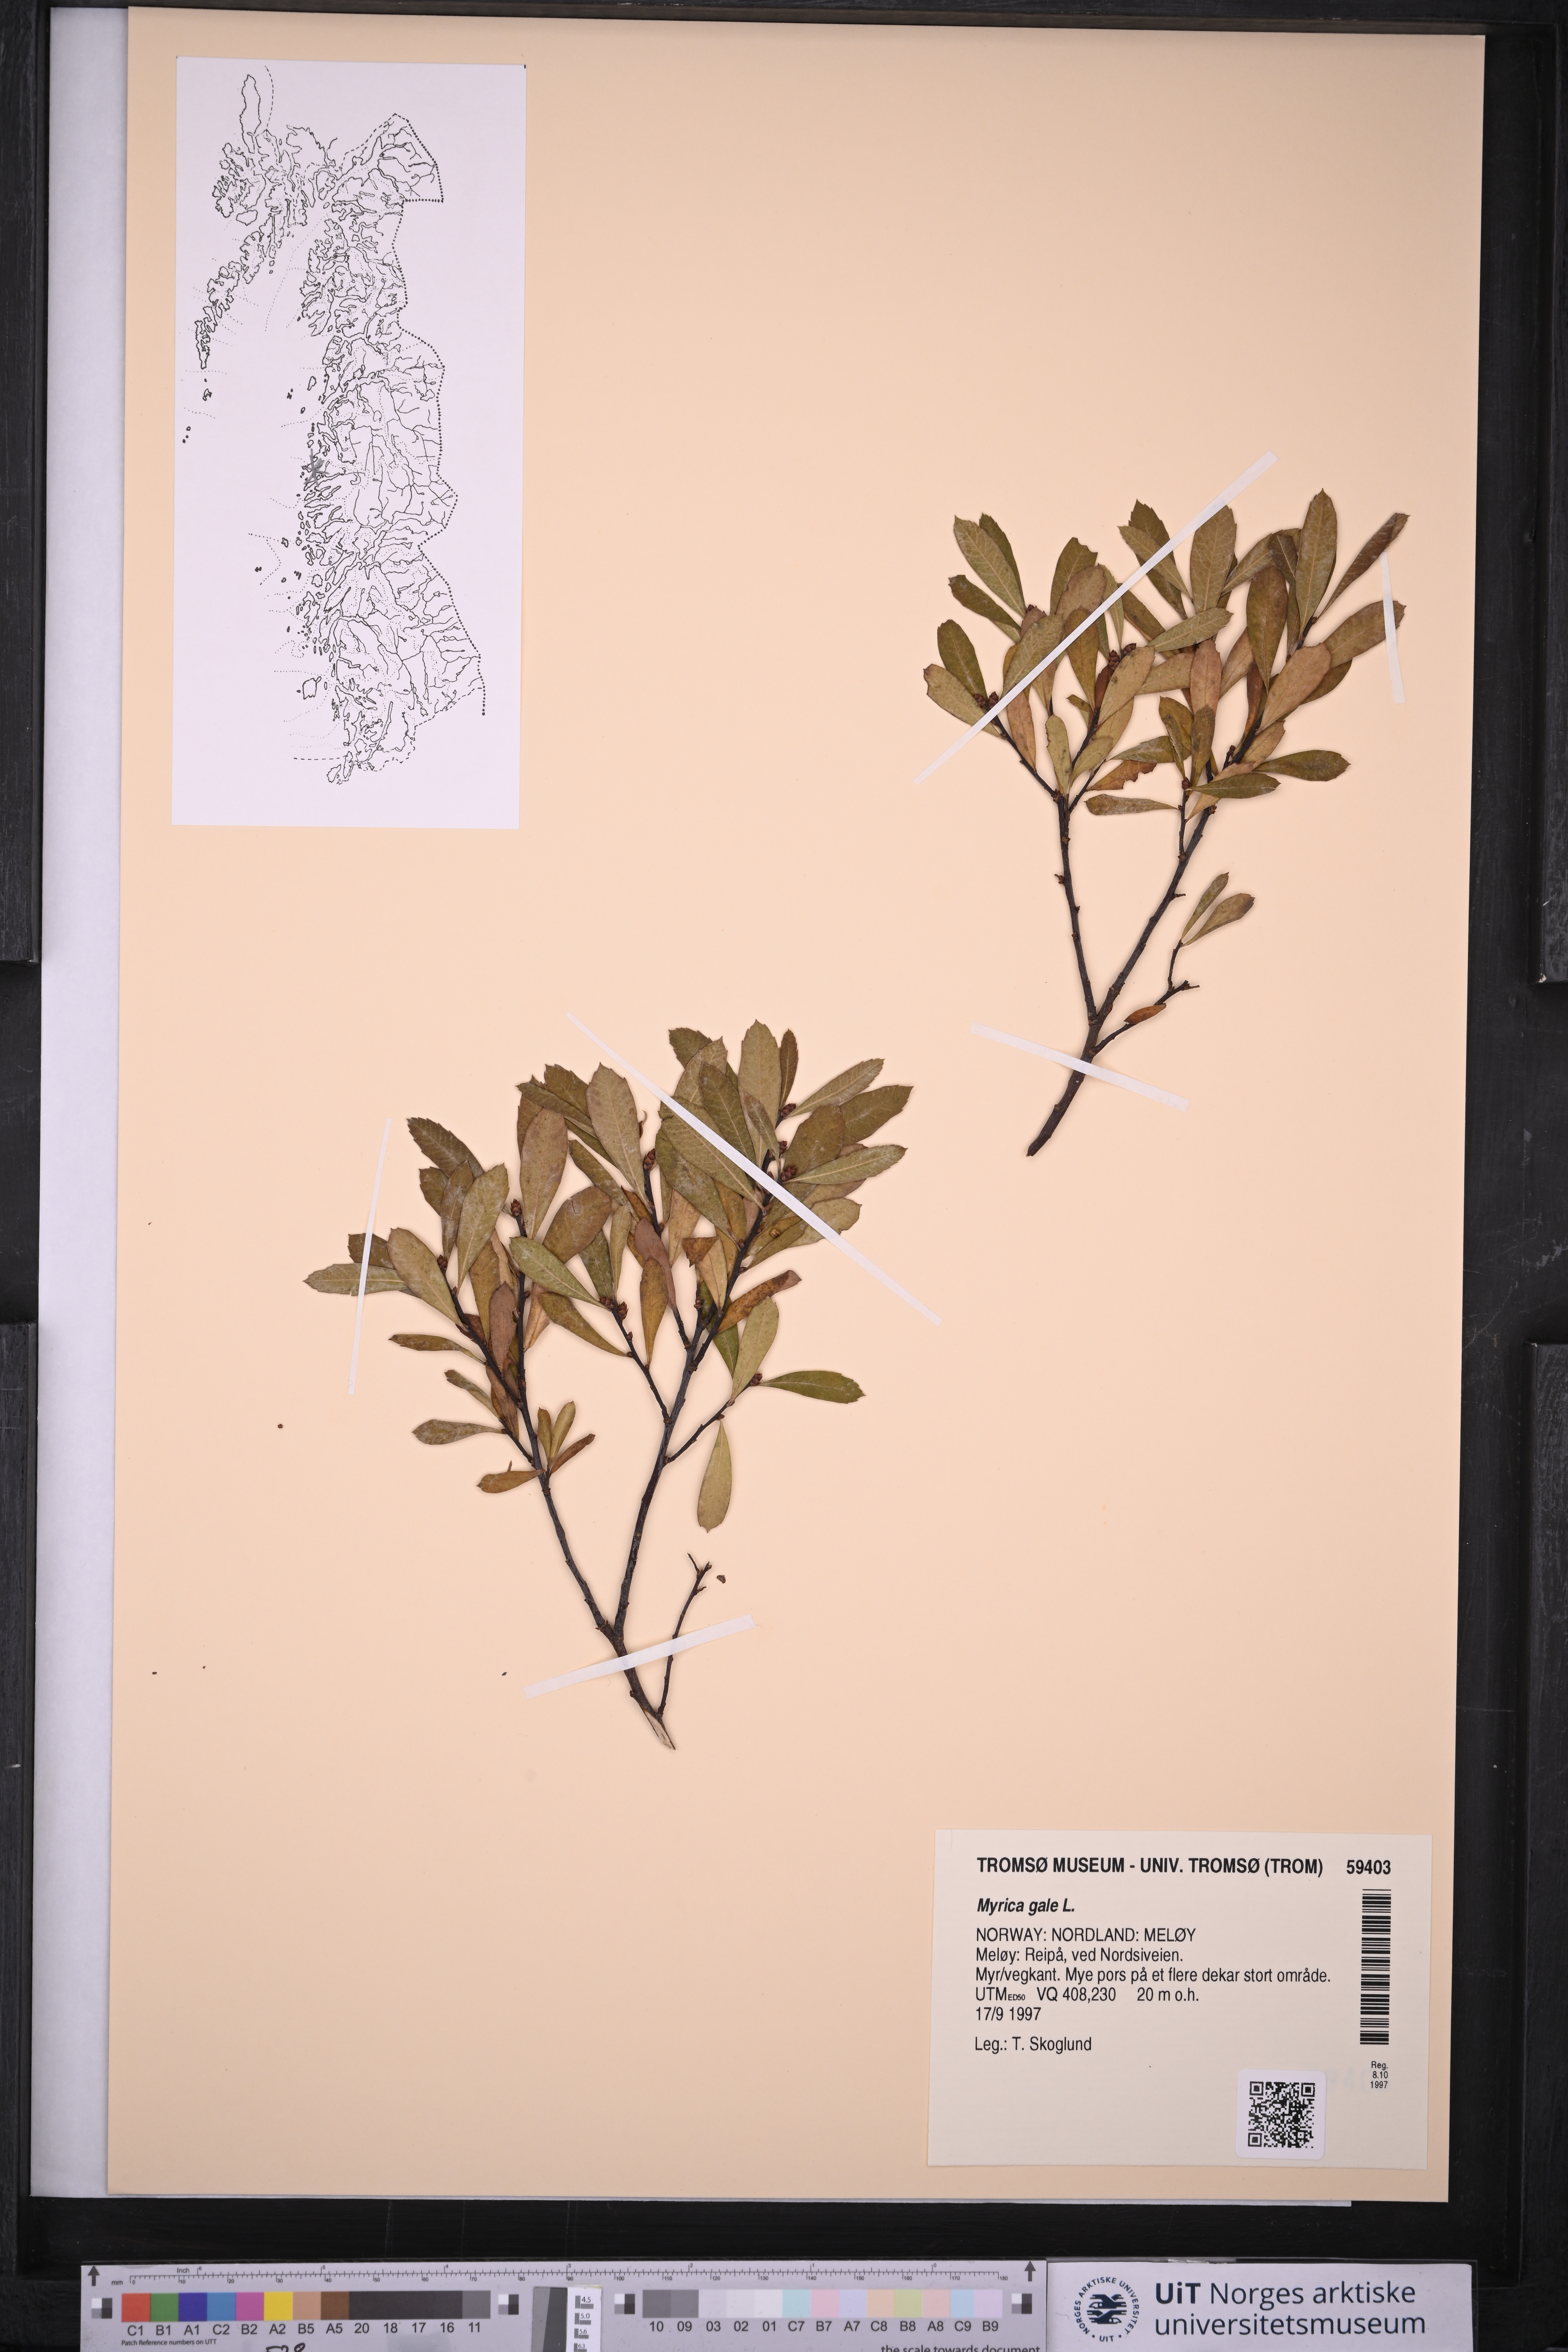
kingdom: Plantae
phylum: Tracheophyta
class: Magnoliopsida
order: Fagales
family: Myricaceae
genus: Myrica
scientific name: Myrica gale
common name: Sweet gale
